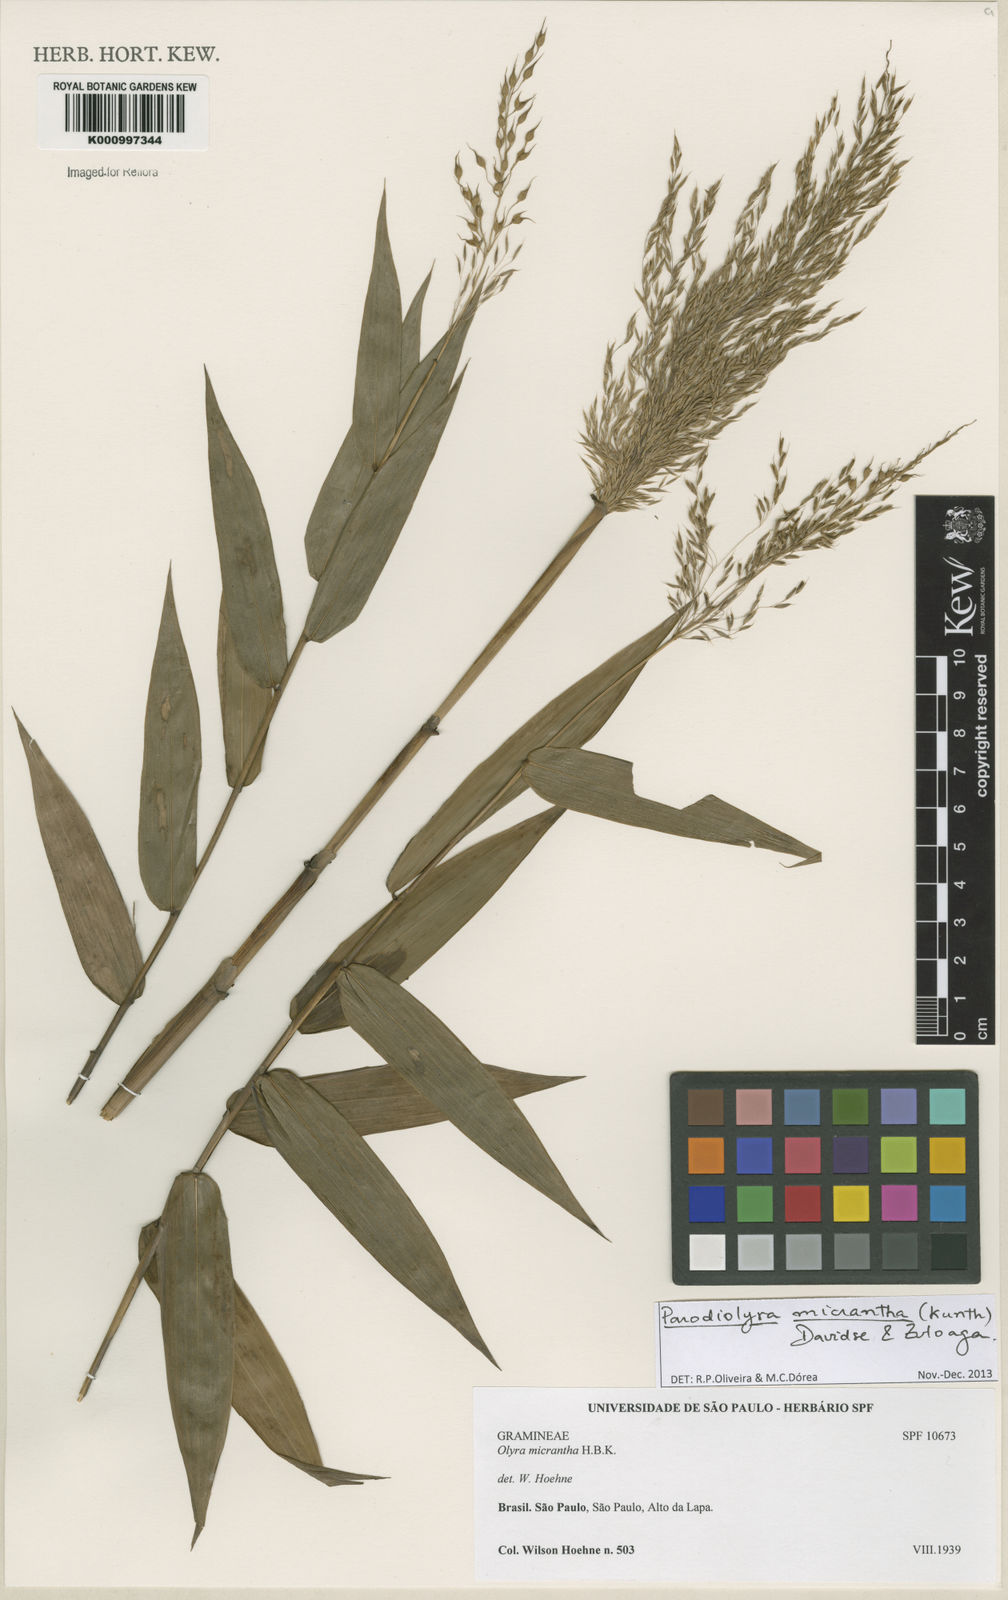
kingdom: Plantae
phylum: Tracheophyta
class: Liliopsida
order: Poales
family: Poaceae
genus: Taquara
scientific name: Taquara micrantha
